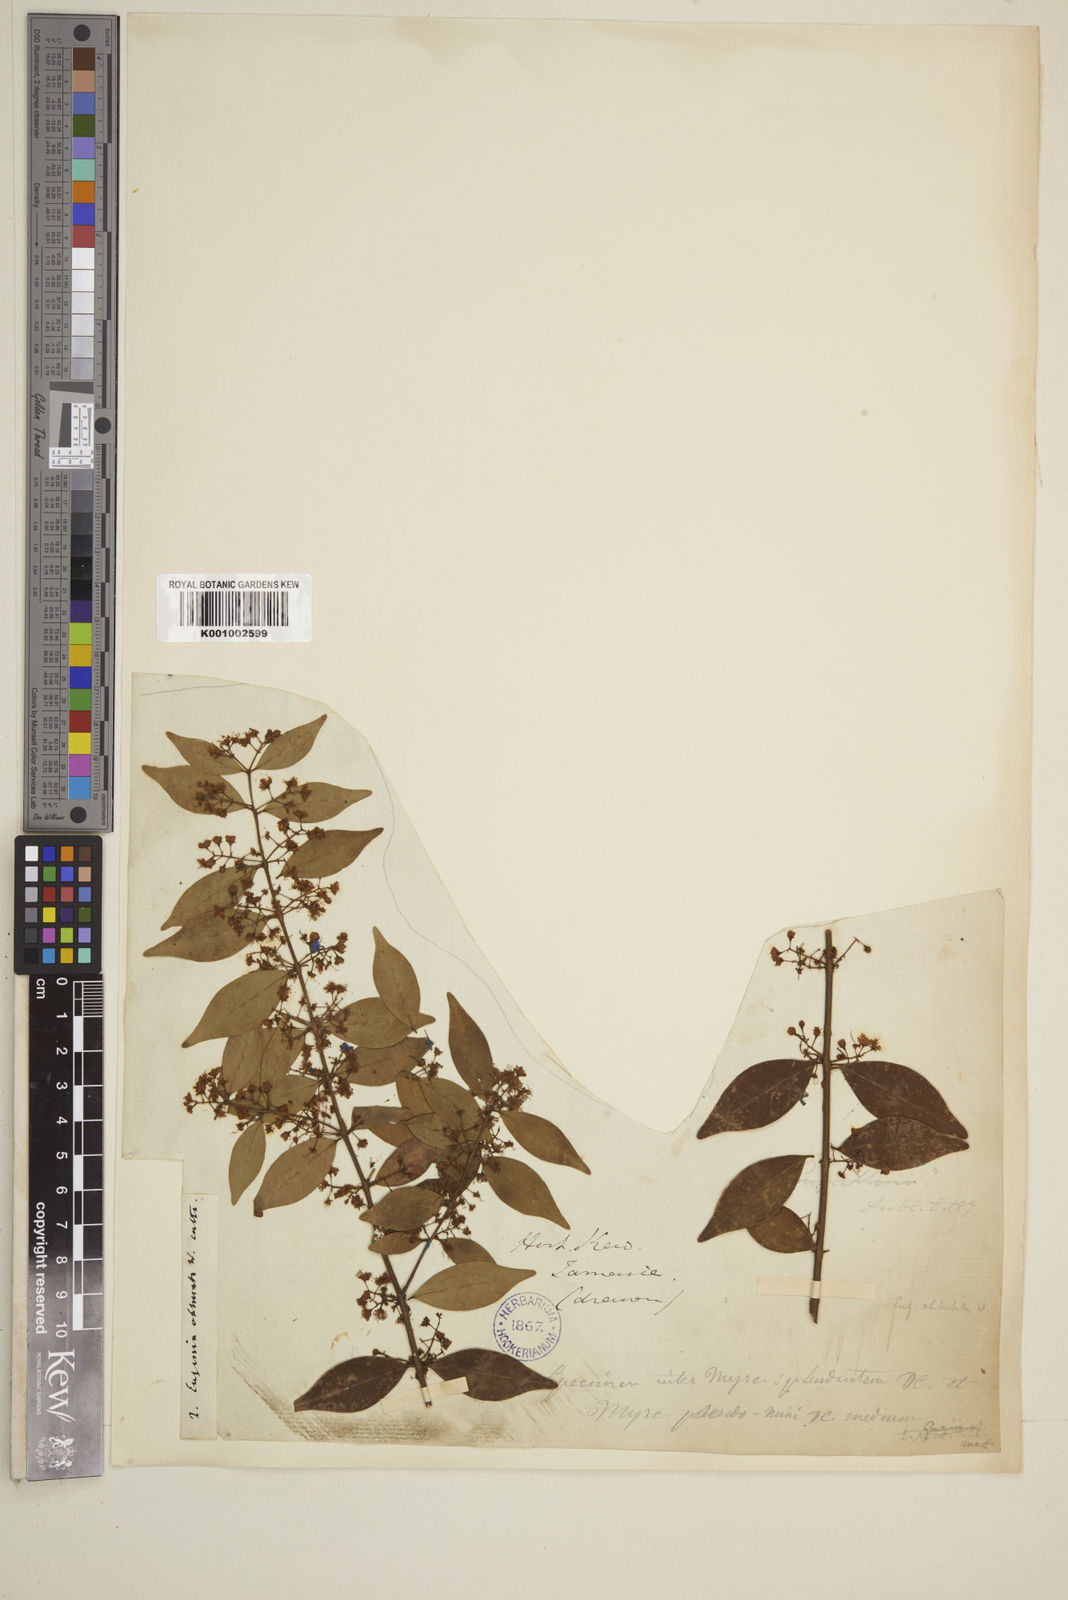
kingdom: Plantae
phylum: Tracheophyta
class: Magnoliopsida
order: Myrtales
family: Myrtaceae
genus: Eugenia
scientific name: Eugenia monticola
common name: Birds berry
